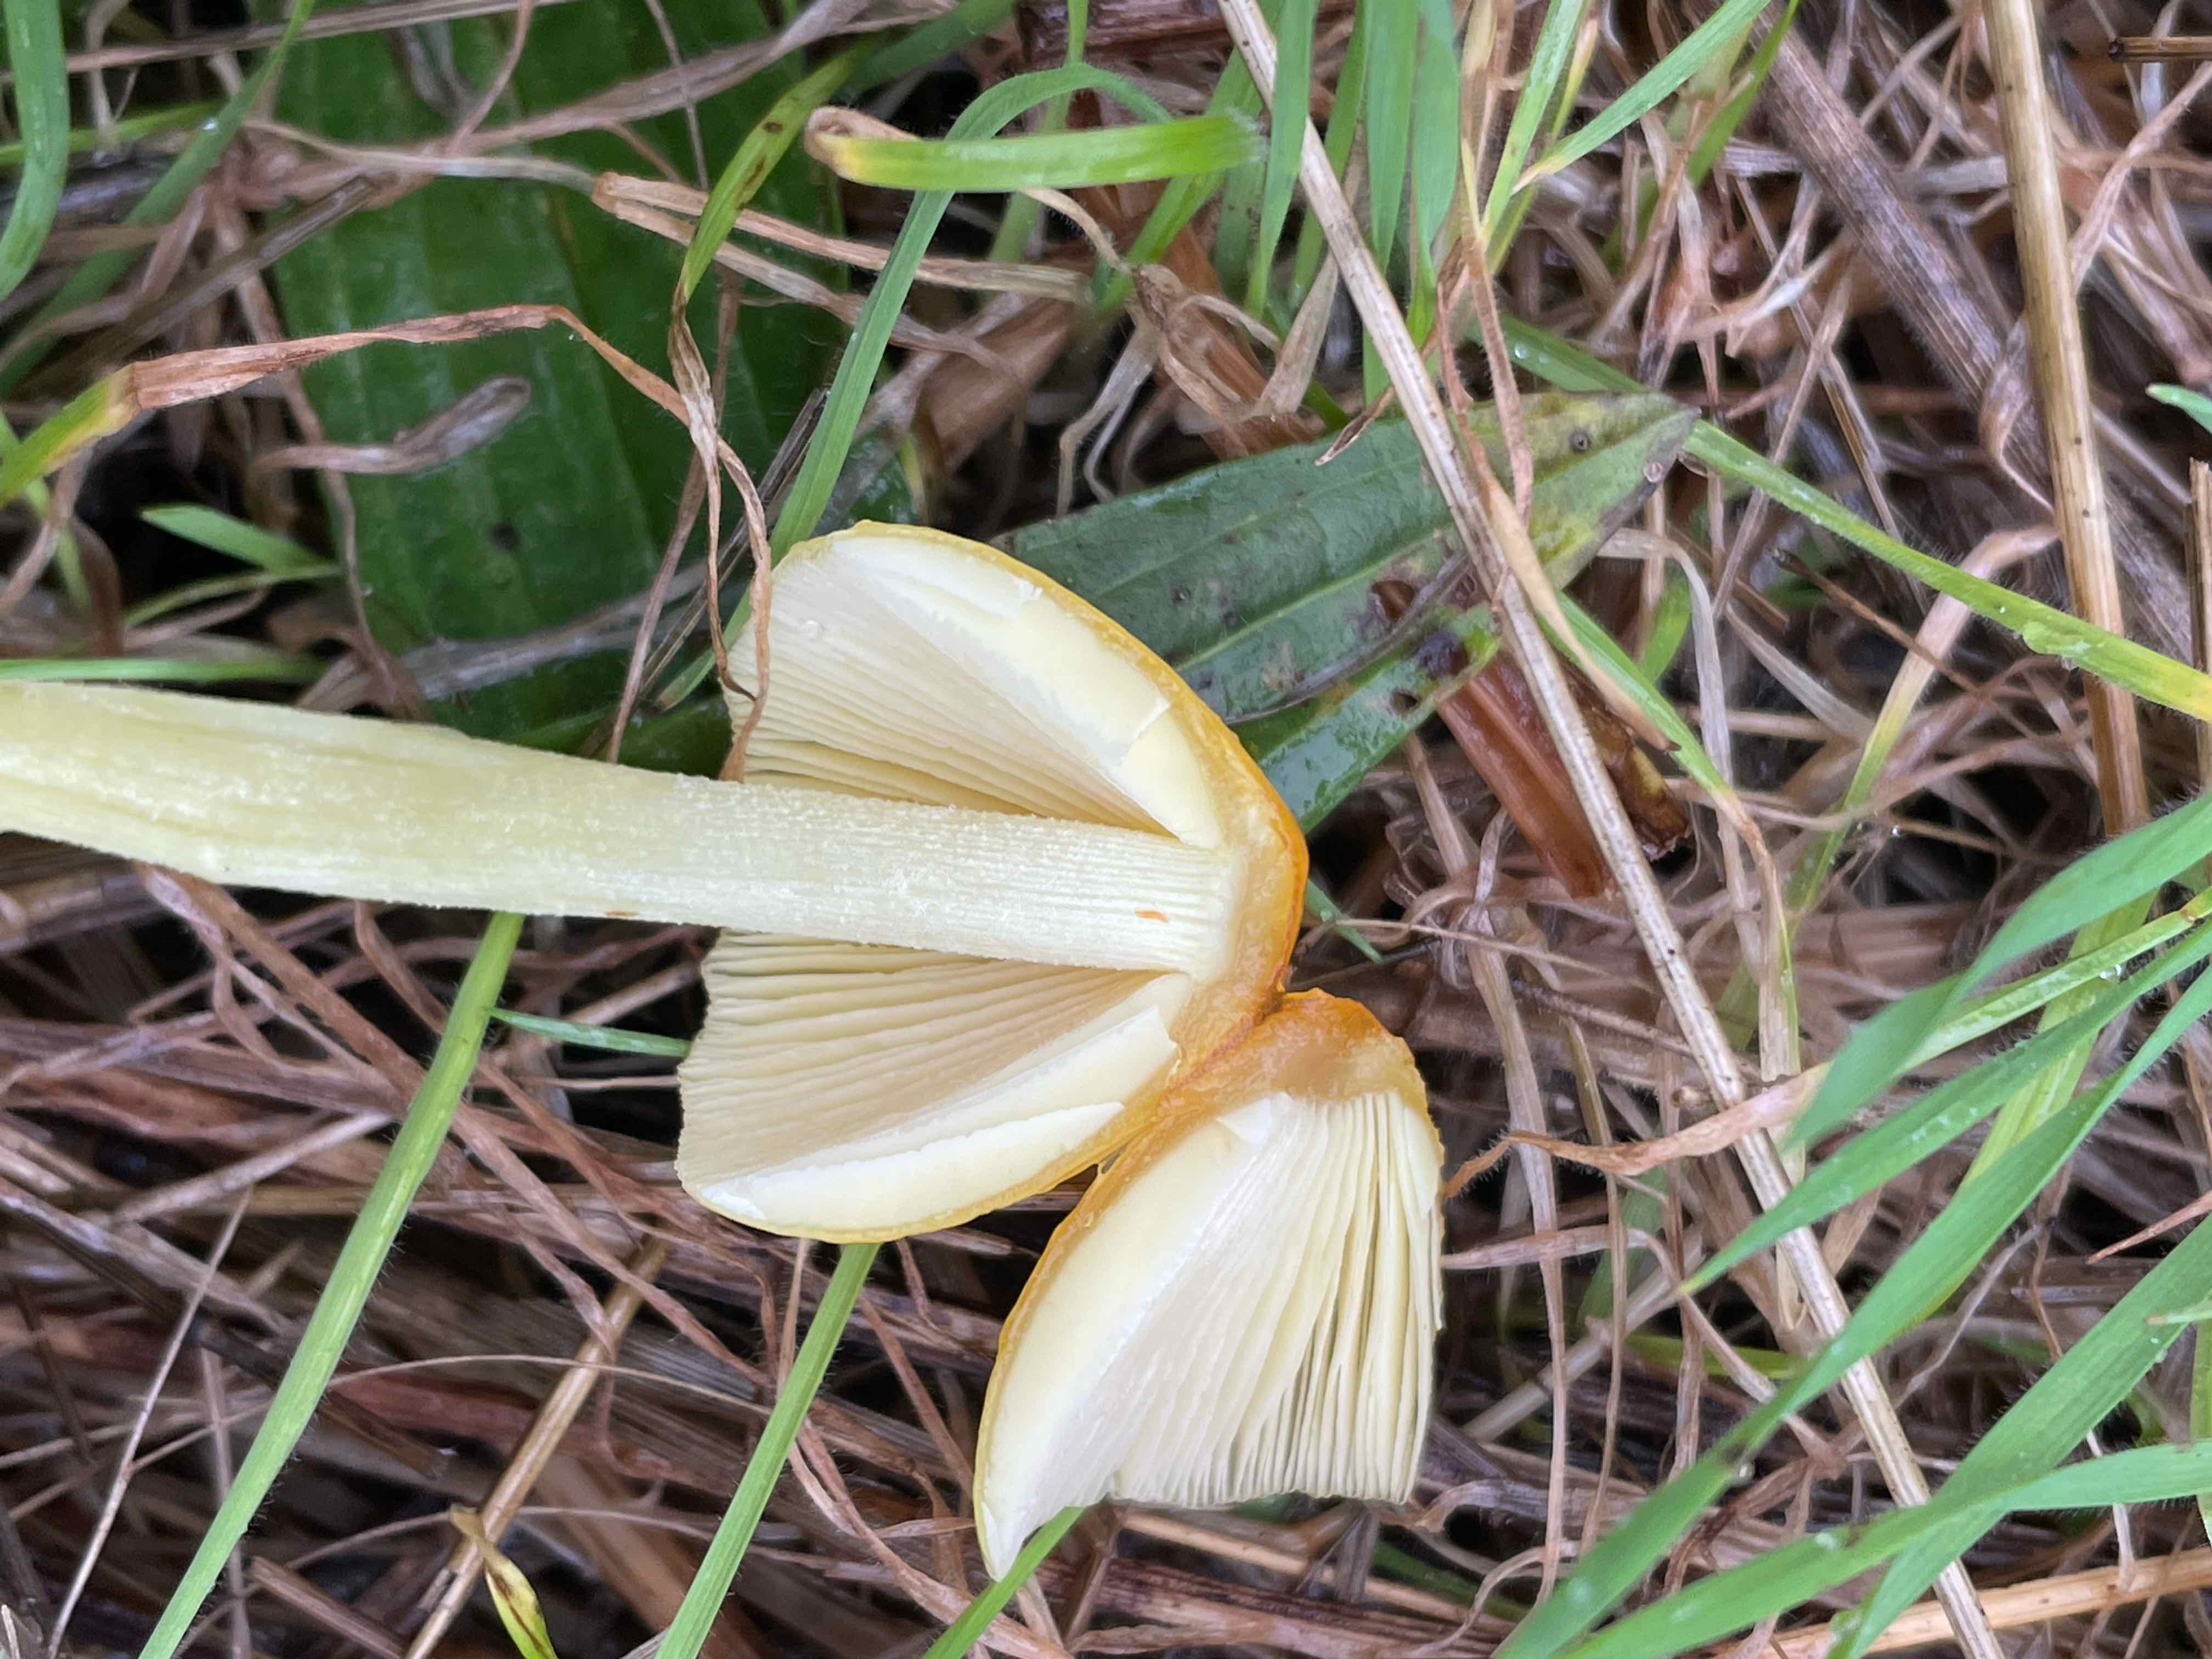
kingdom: Fungi
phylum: Basidiomycota
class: Agaricomycetes
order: Agaricales
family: Bolbitiaceae
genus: Bolbitius
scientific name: Bolbitius titubans
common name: almindelig gulhat
